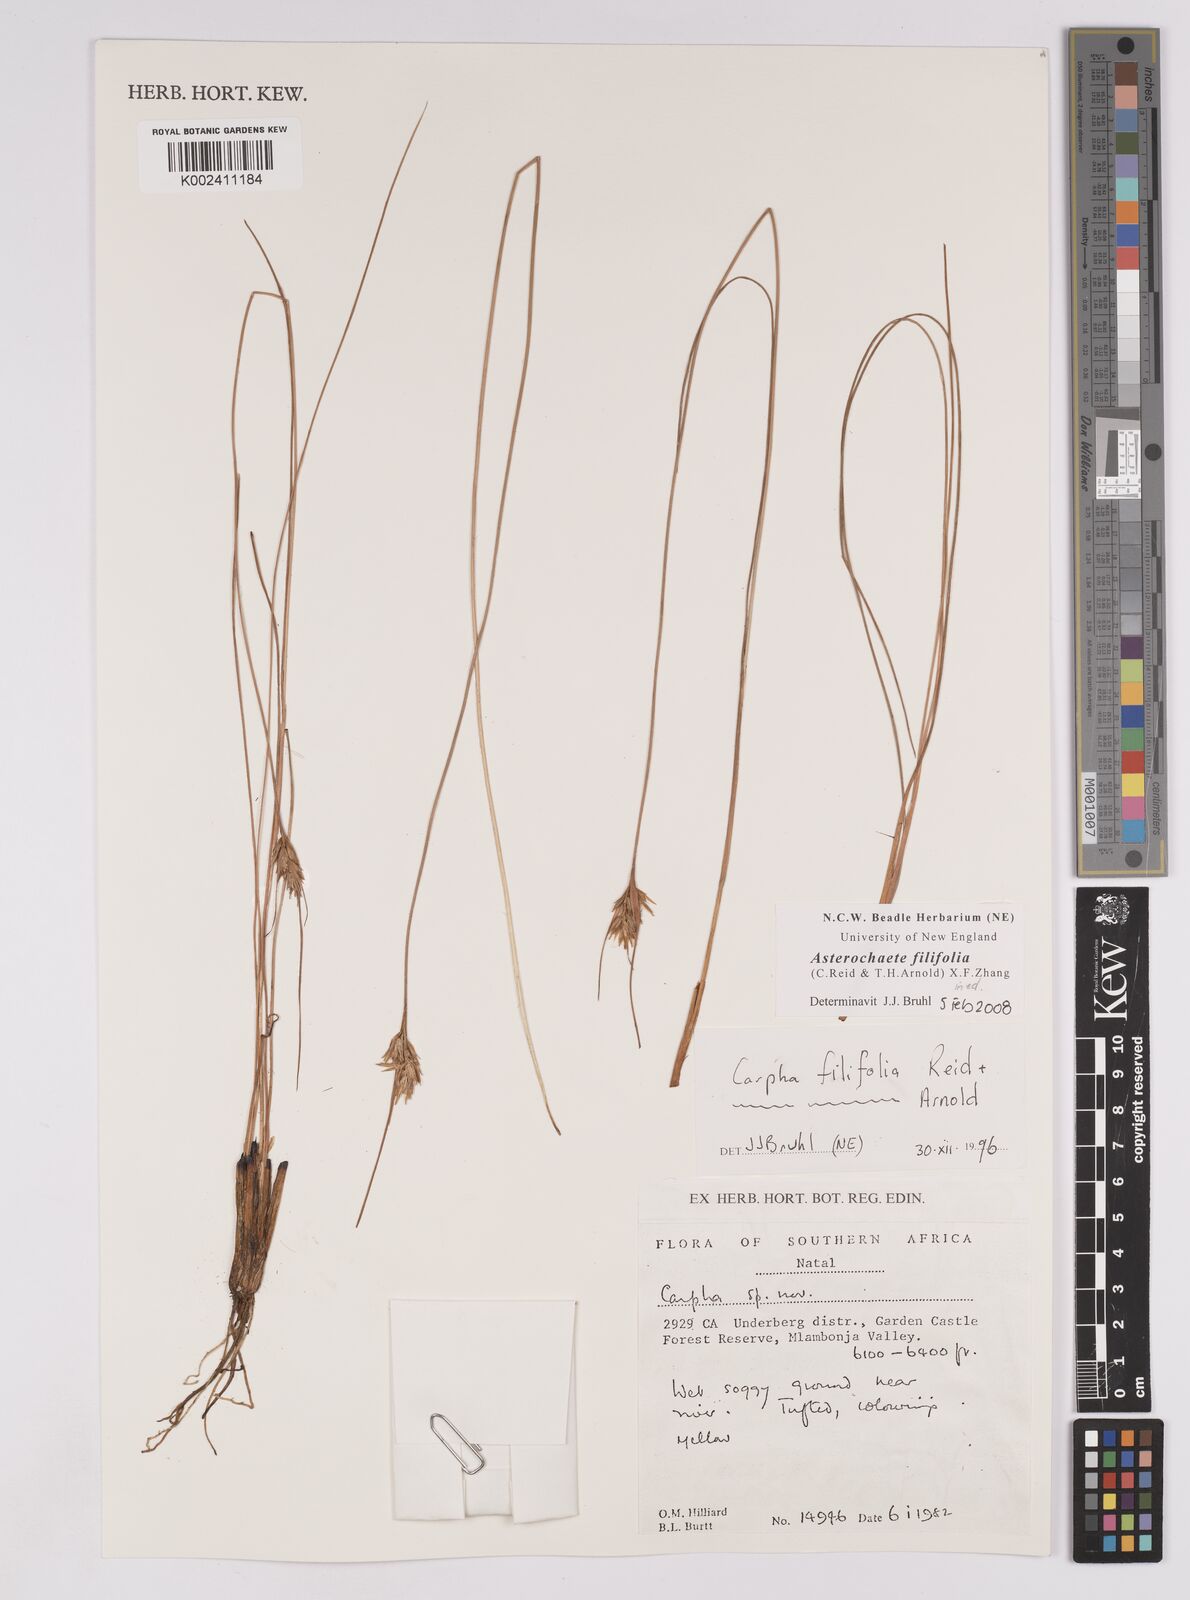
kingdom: Plantae
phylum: Tracheophyta
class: Liliopsida
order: Poales
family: Cyperaceae
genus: Carpha
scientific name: Carpha filifolia
